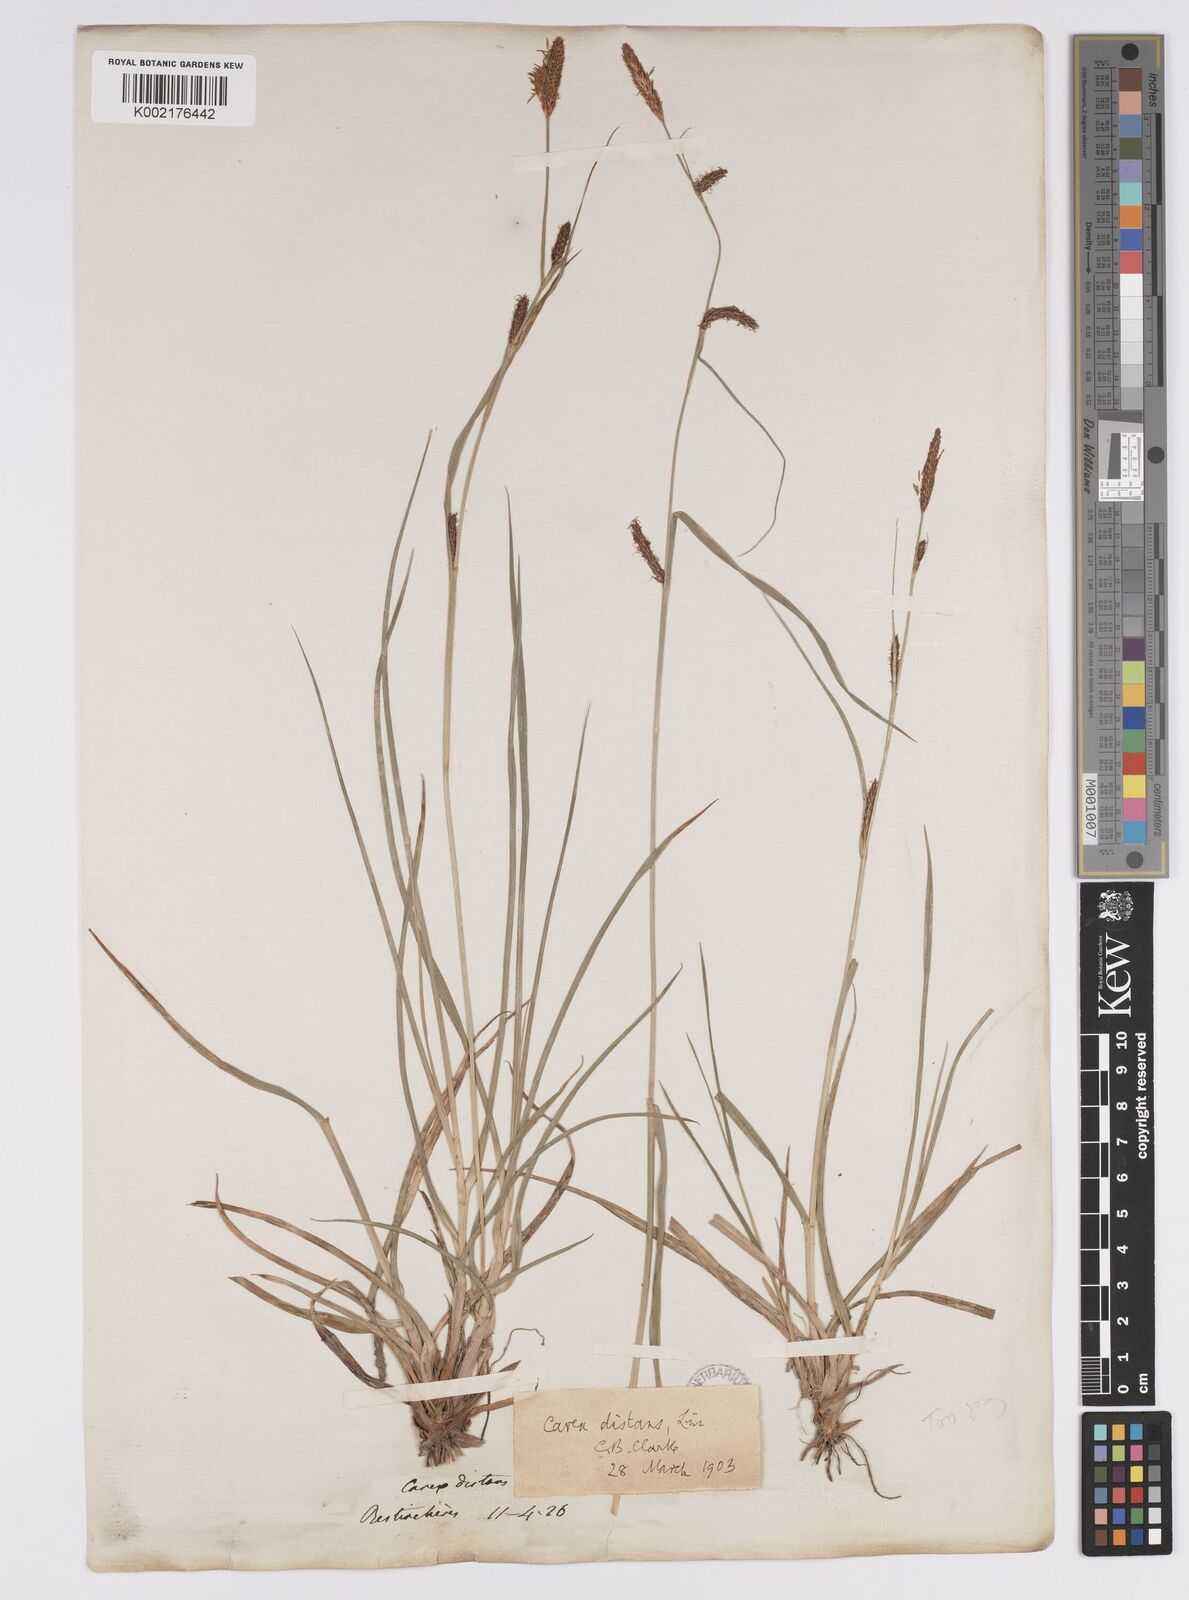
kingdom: Plantae
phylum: Tracheophyta
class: Liliopsida
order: Poales
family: Cyperaceae
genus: Carex
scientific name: Carex distans
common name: Distant sedge
